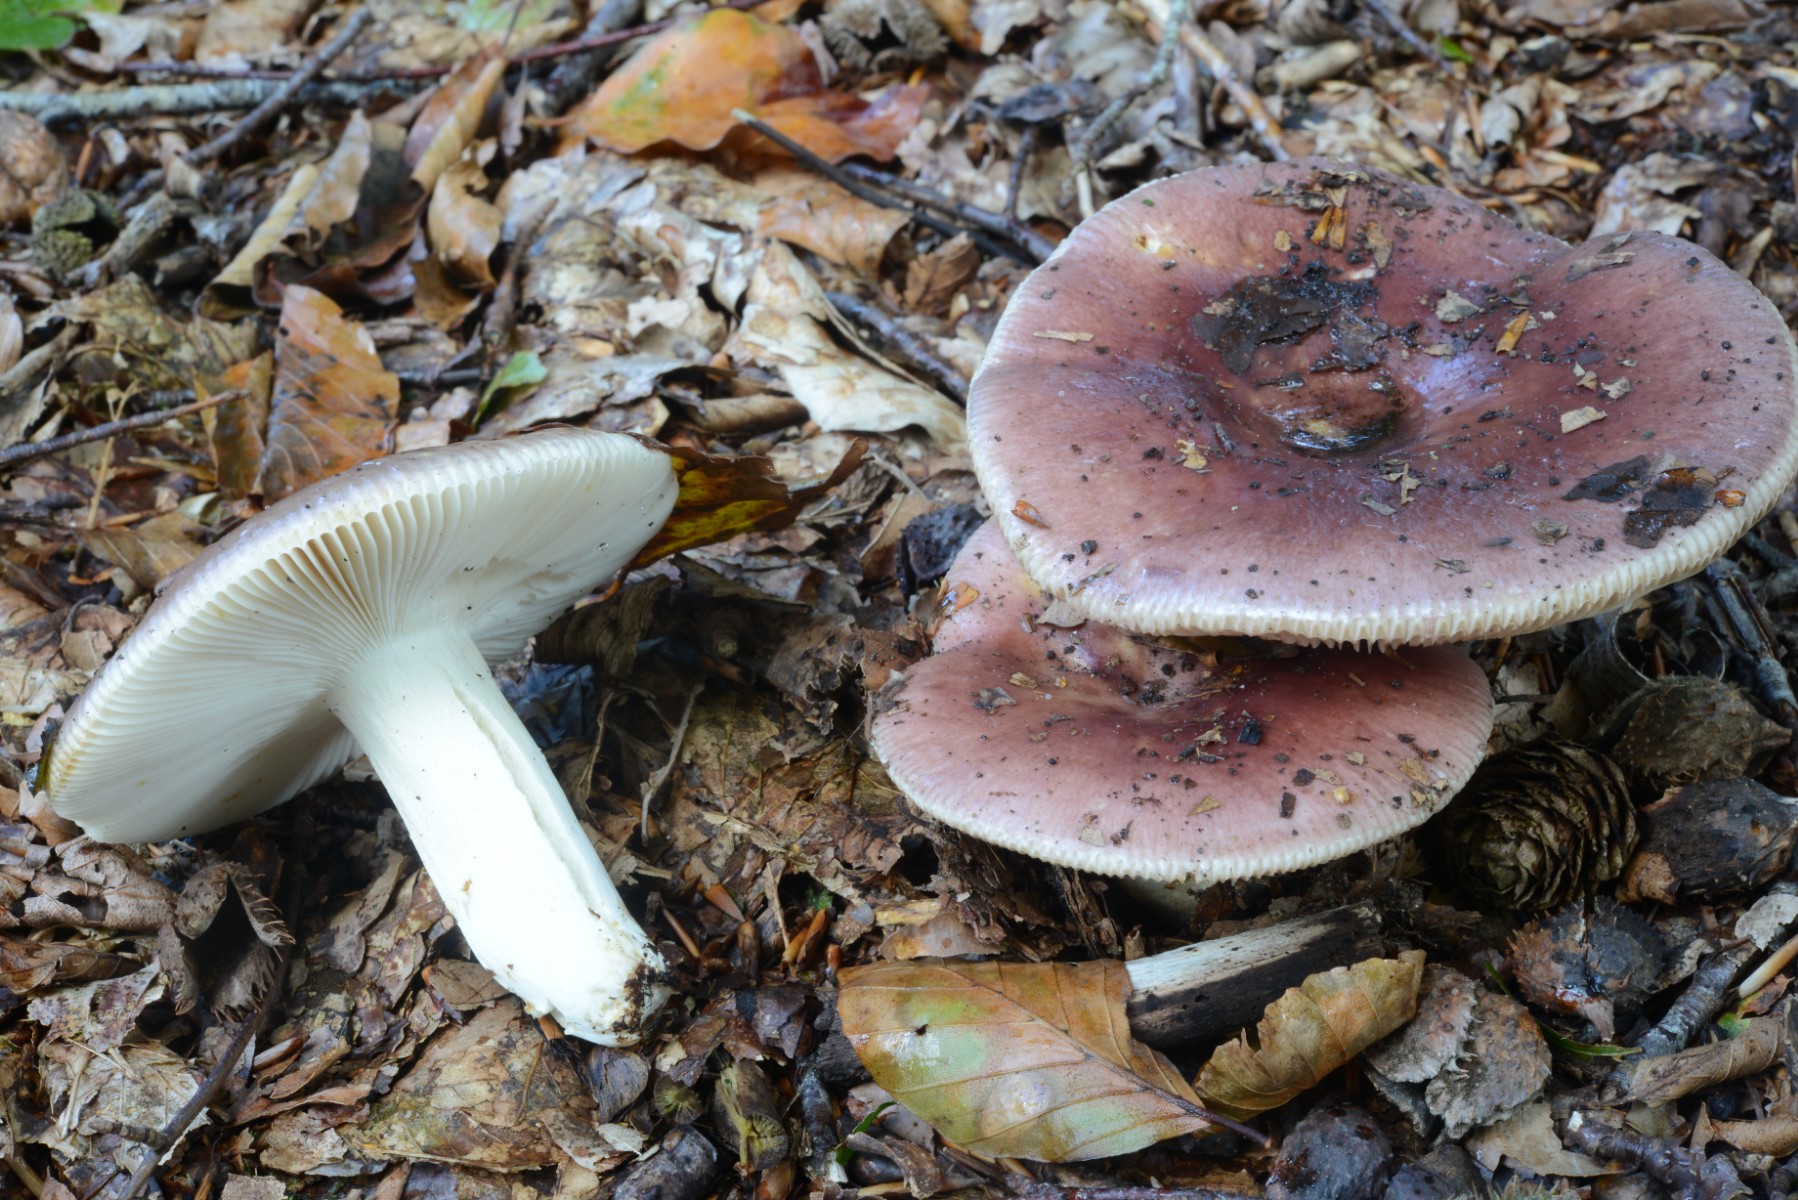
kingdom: Fungi
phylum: Basidiomycota
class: Agaricomycetes
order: Russulales
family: Russulaceae
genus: Russula
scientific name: Russula vesca
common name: spiselig skørhat
